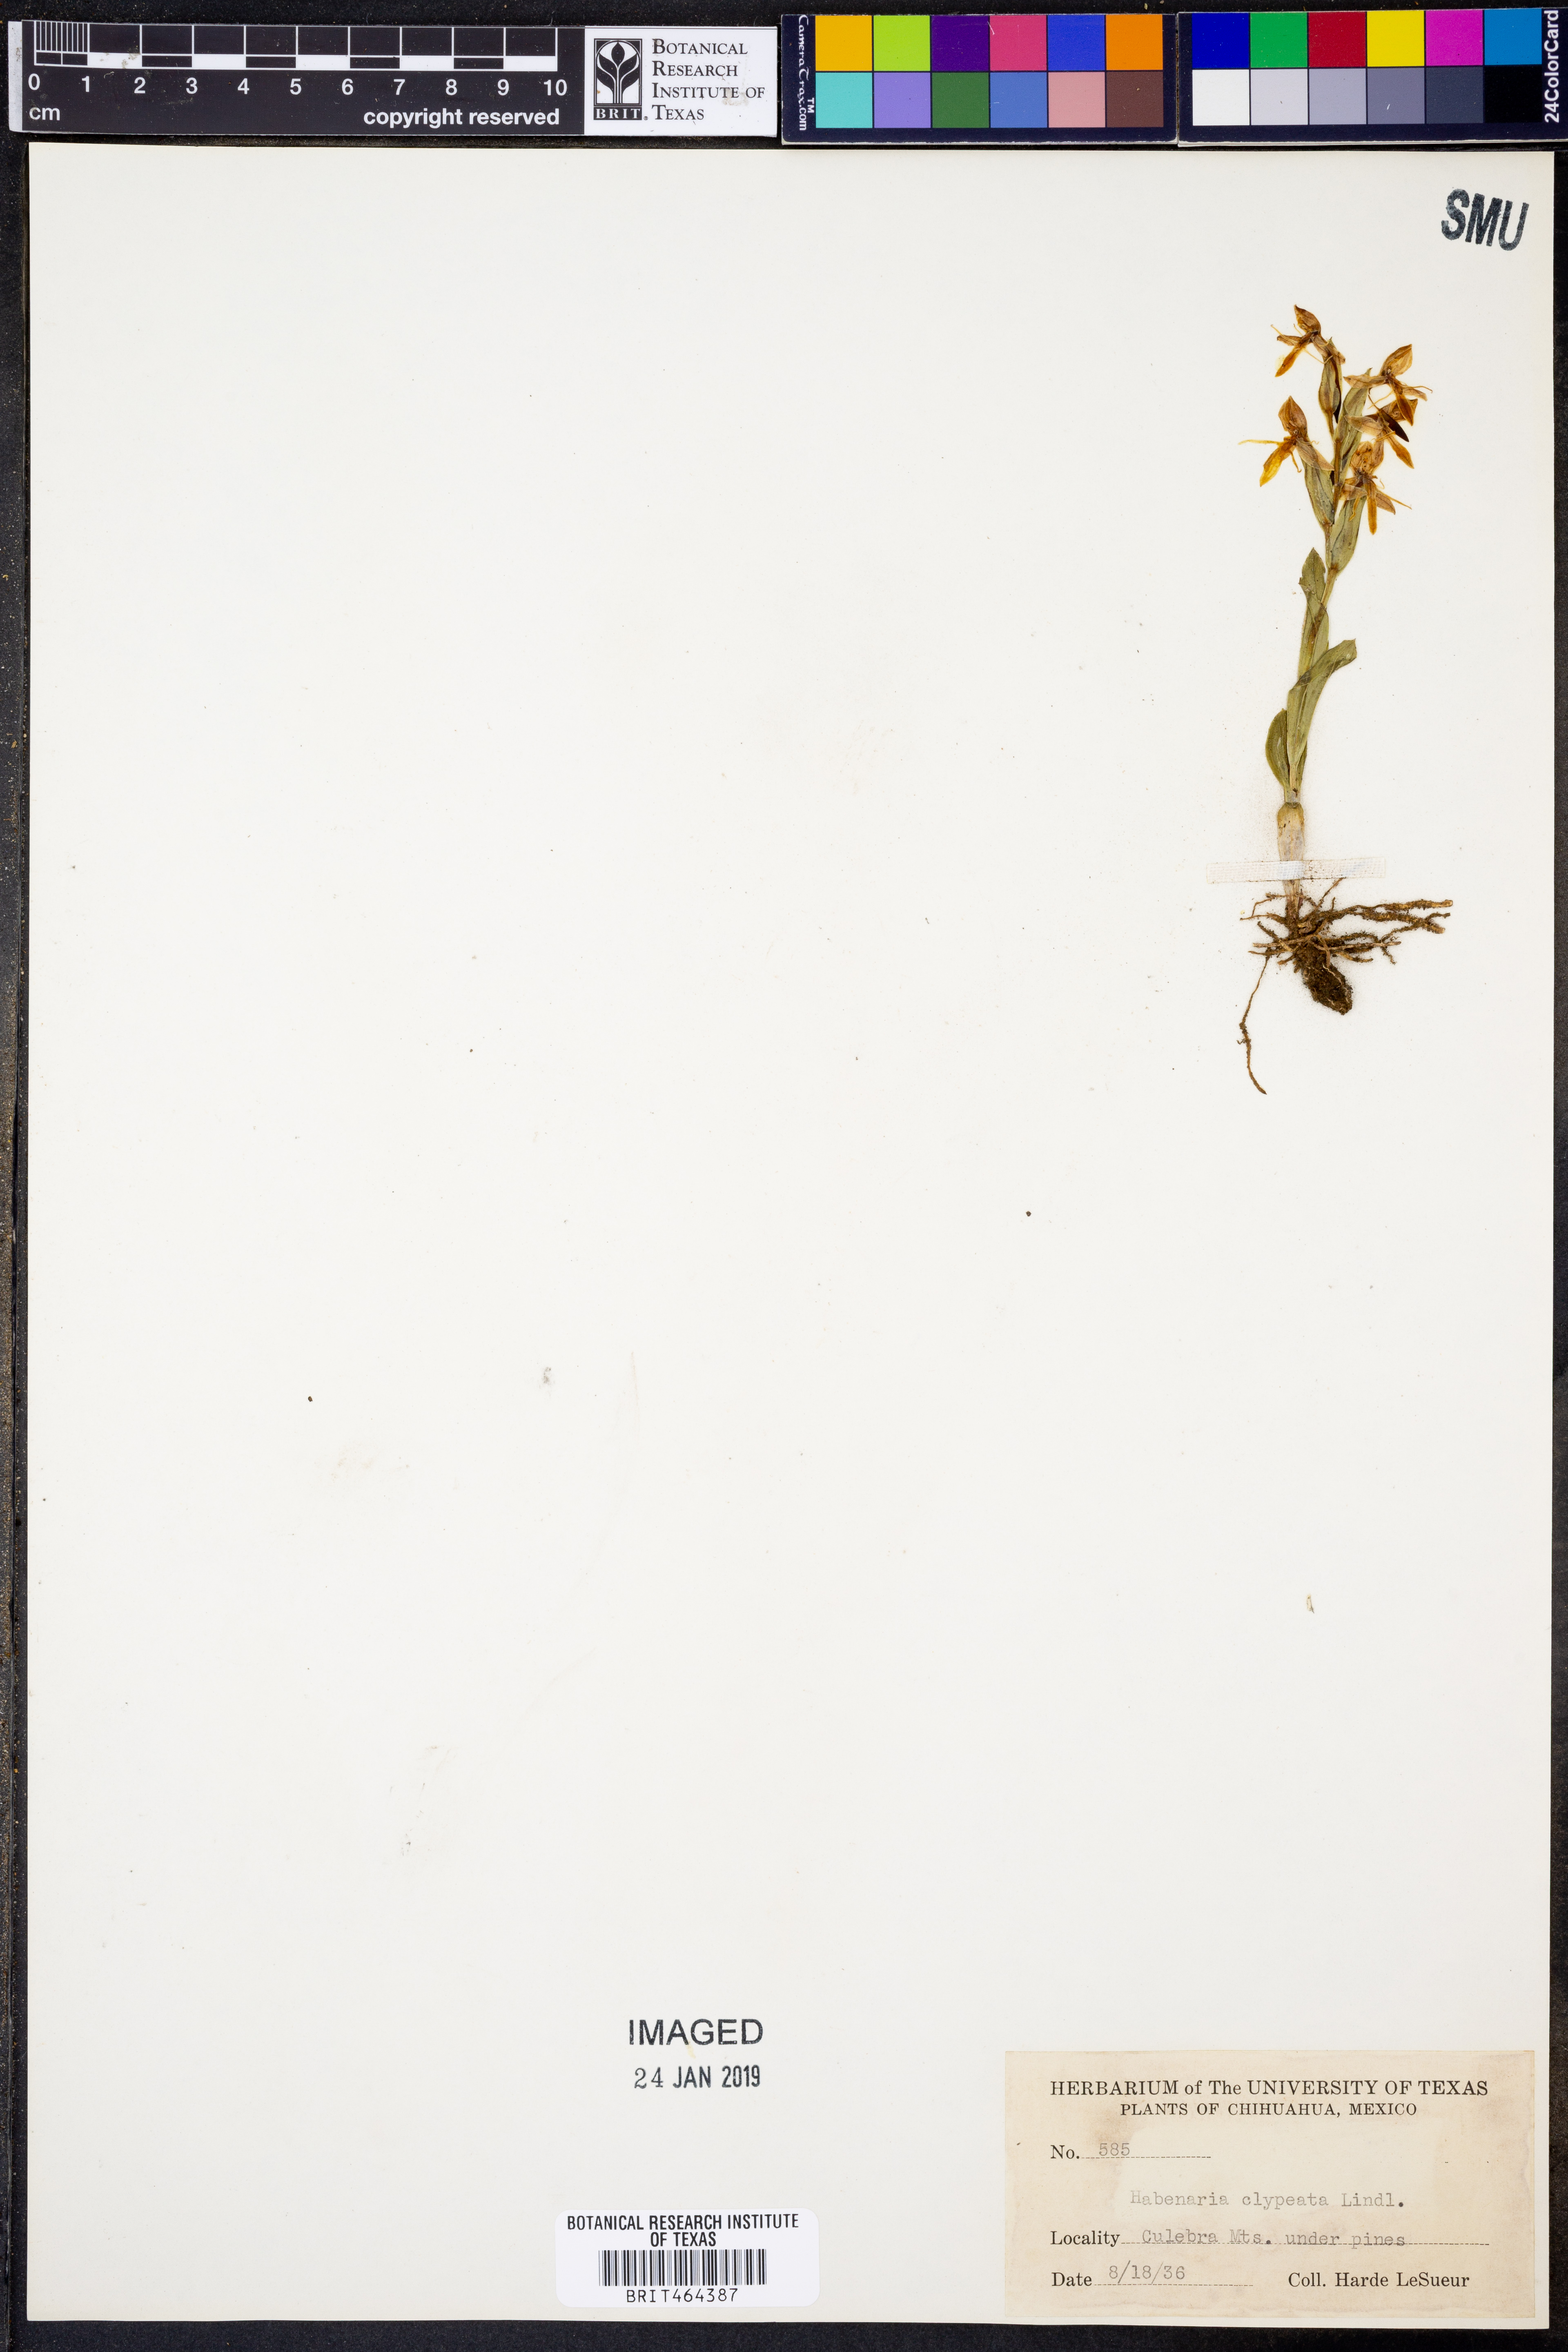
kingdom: Plantae
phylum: Tracheophyta
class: Liliopsida
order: Asparagales
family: Orchidaceae
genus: Habenaria
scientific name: Habenaria clypeata
